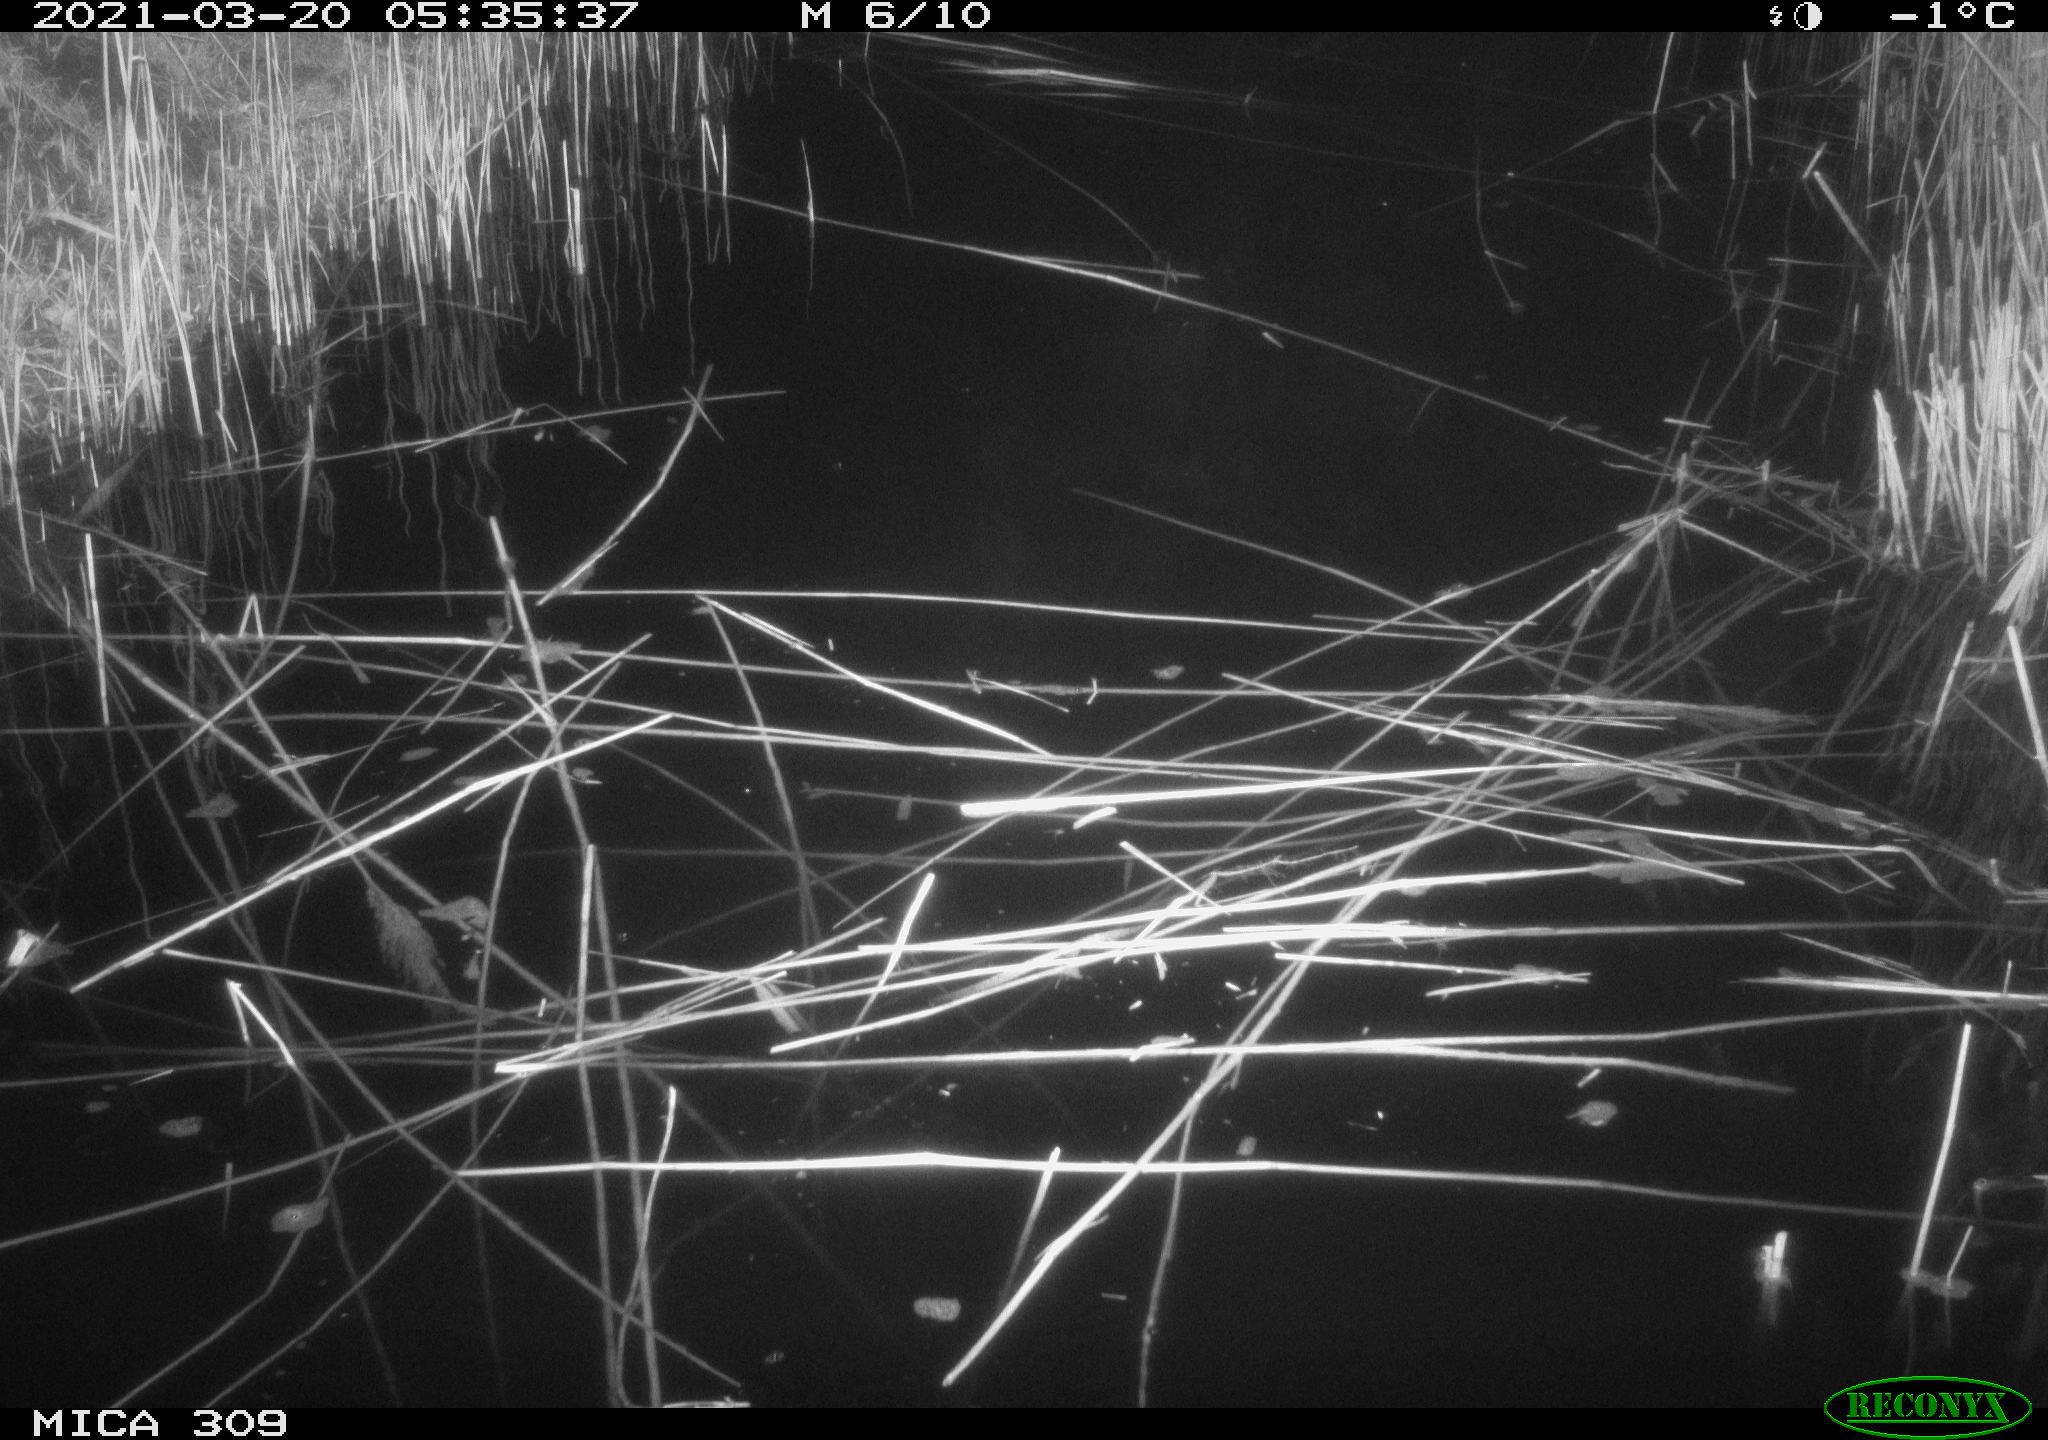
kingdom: Animalia
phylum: Chordata
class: Aves
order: Anseriformes
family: Anatidae
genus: Anas
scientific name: Anas platyrhynchos
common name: Mallard
